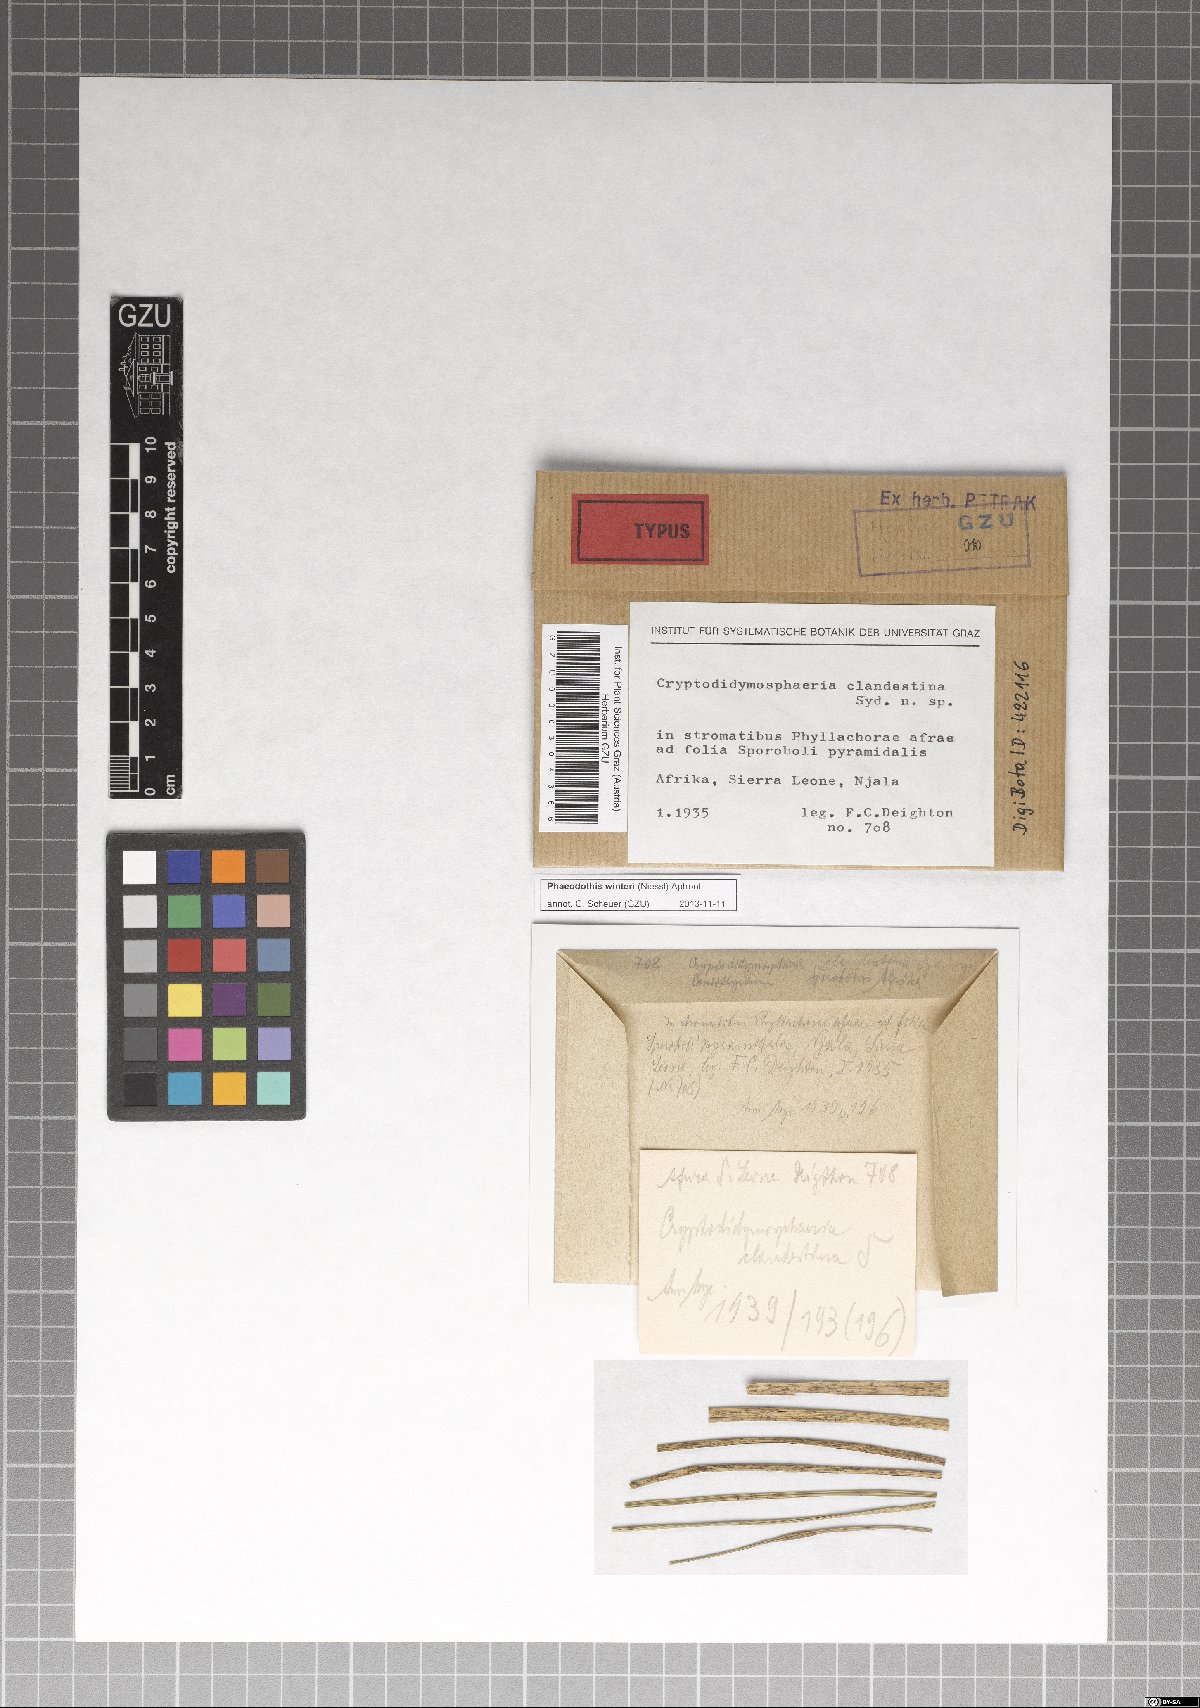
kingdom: Fungi
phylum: Ascomycota
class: Dothideomycetes
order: Pleosporales
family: Didymosphaeriaceae
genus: Phaeodothis
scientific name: Phaeodothis winteri
